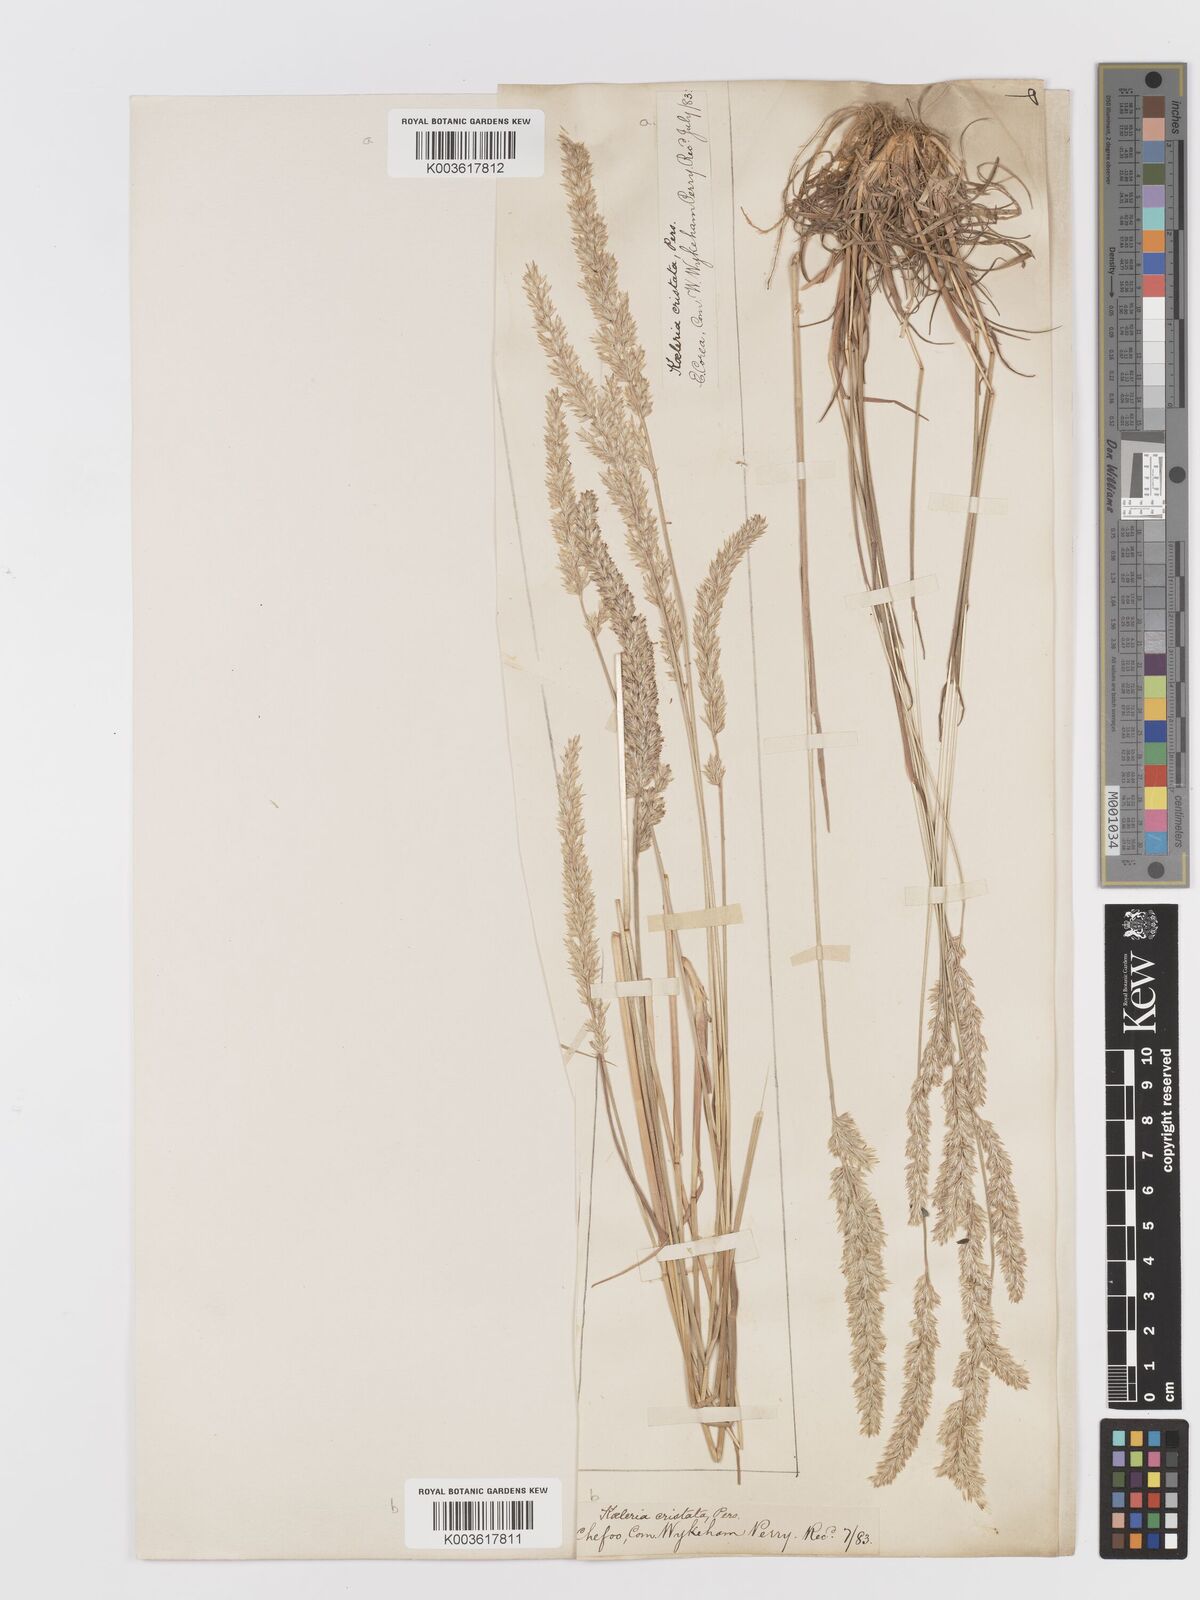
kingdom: Plantae
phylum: Tracheophyta
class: Liliopsida
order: Poales
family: Poaceae
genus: Koeleria
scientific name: Koeleria macrantha
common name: Crested hair-grass
